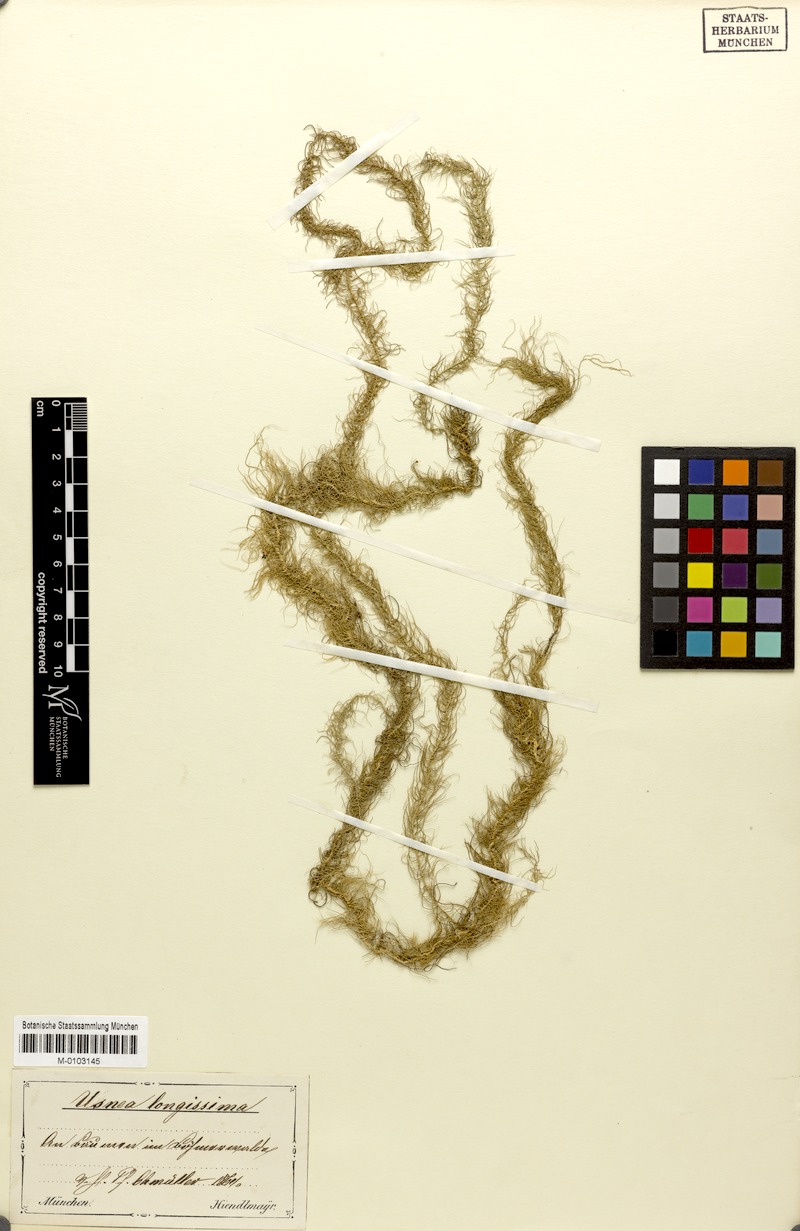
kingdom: Fungi
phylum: Ascomycota
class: Lecanoromycetes
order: Lecanorales
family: Parmeliaceae
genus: Dolichousnea
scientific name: Dolichousnea longissima
